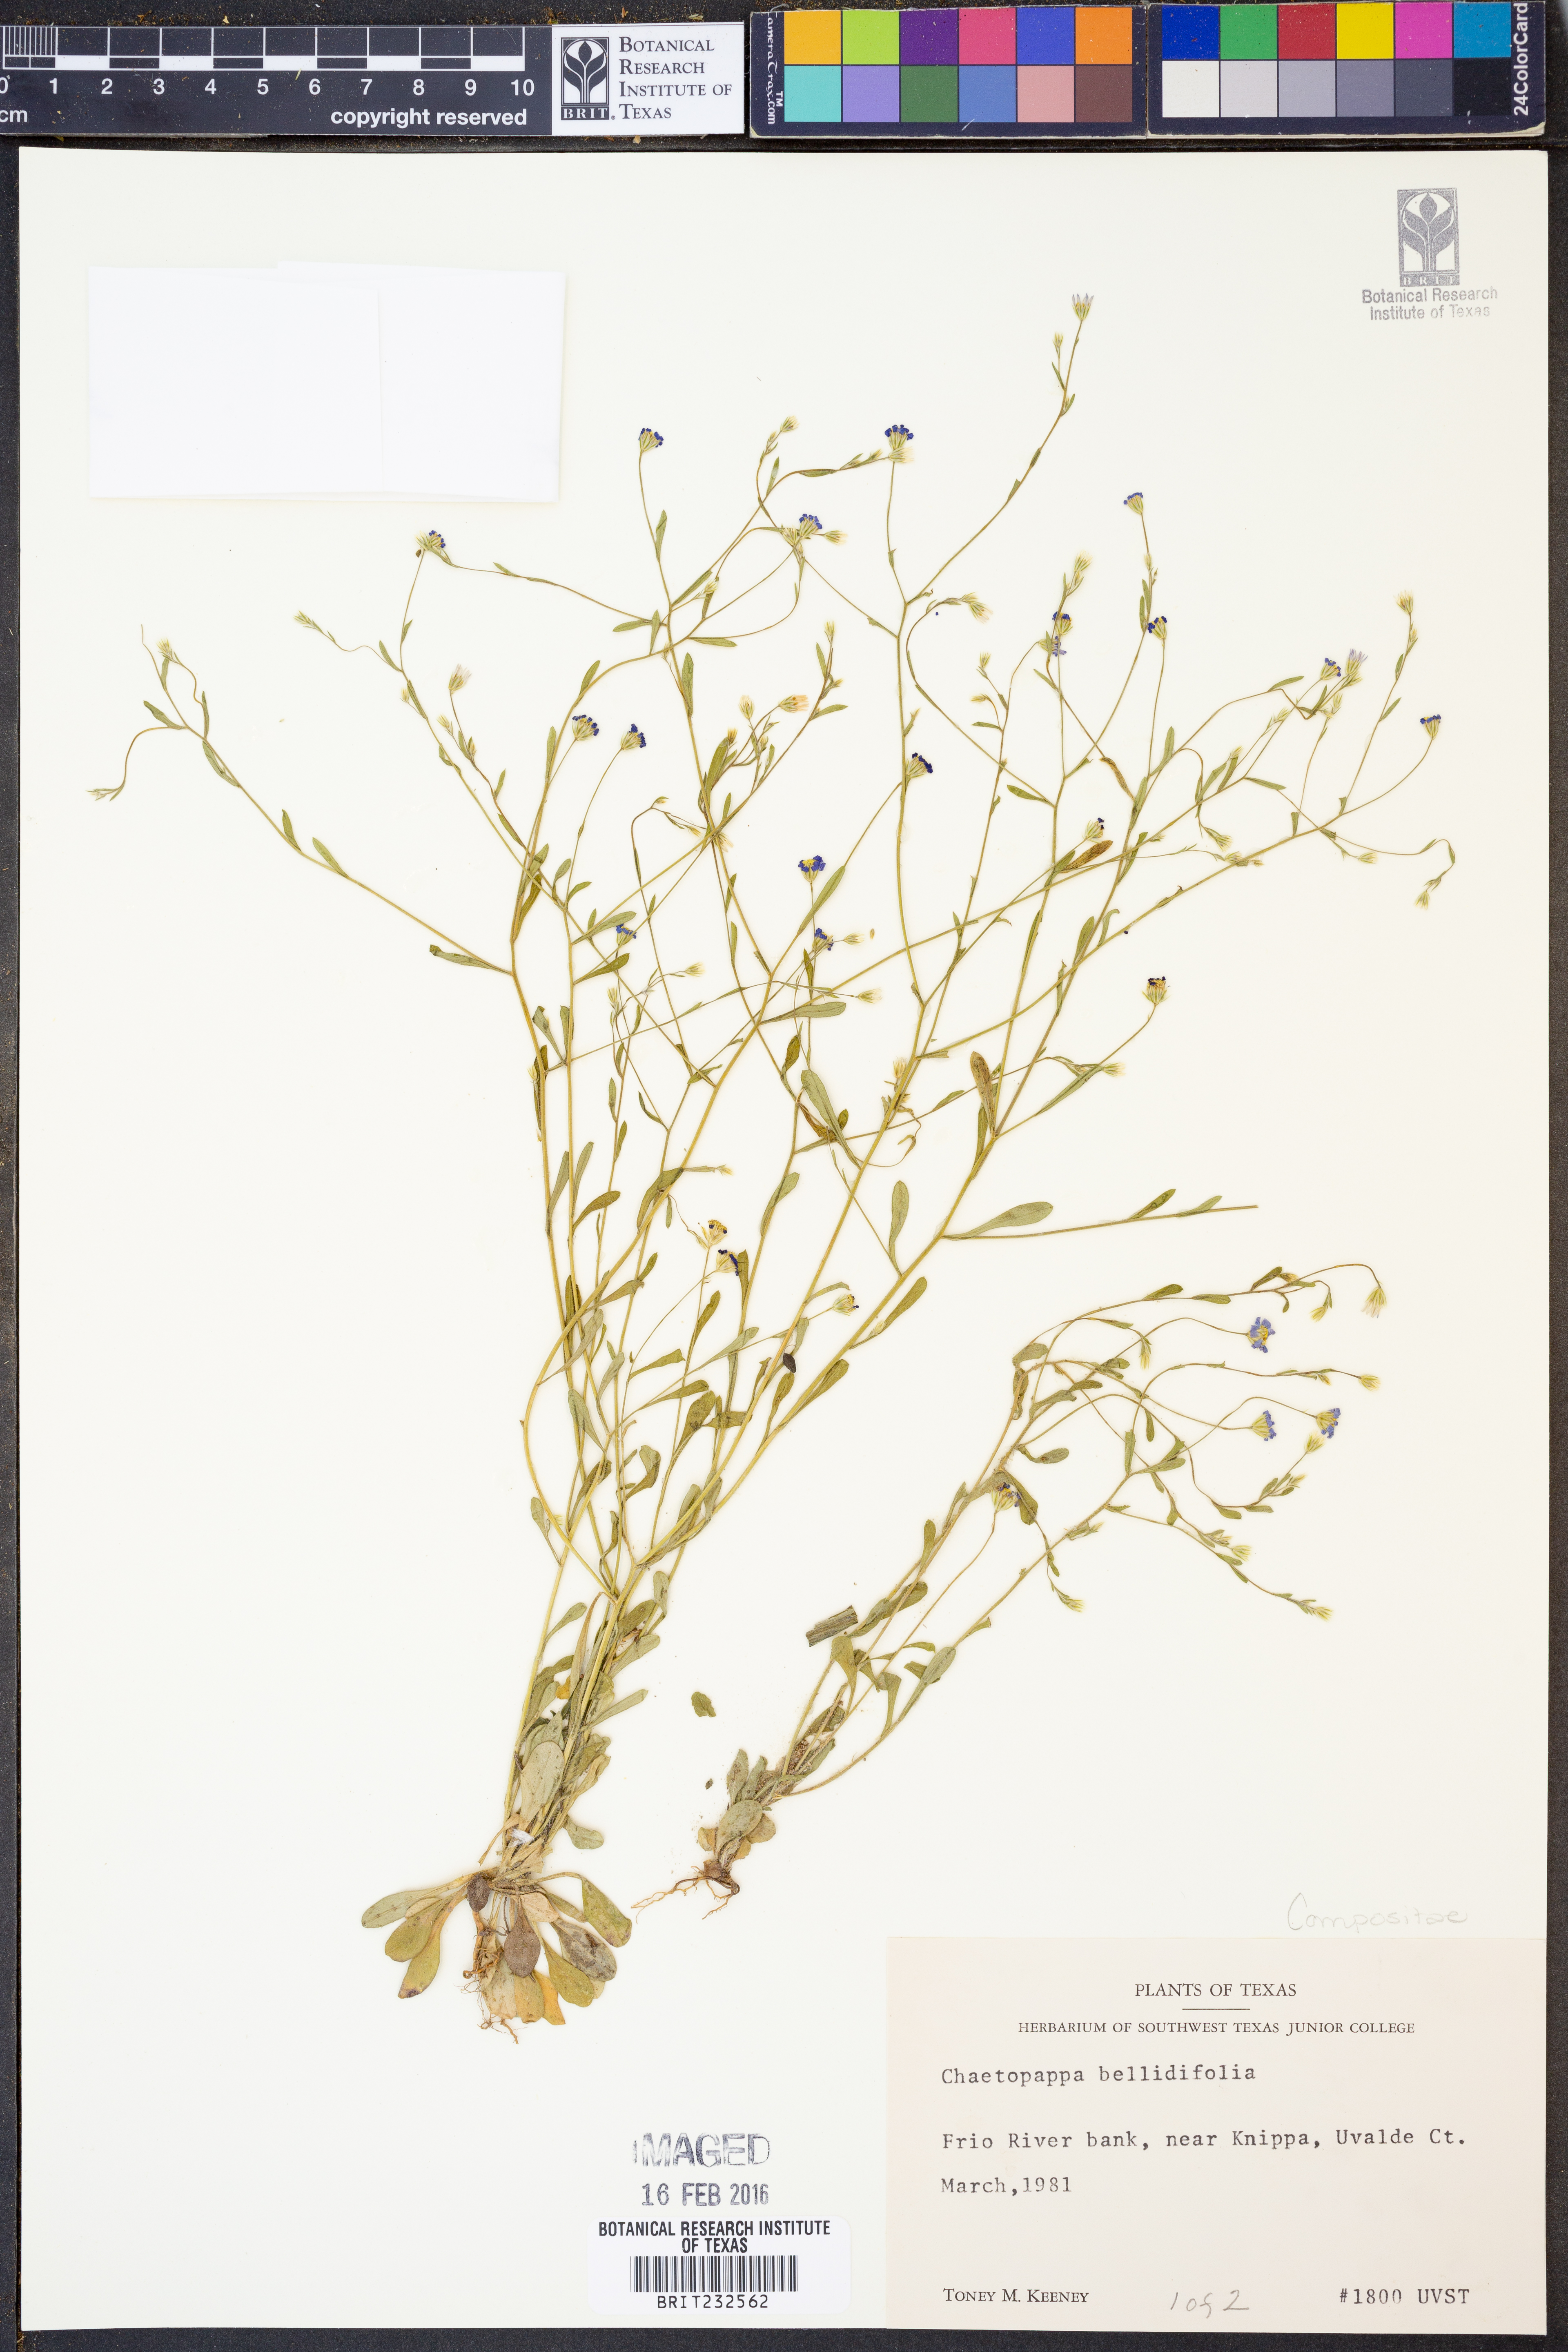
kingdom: Plantae
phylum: Tracheophyta
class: Magnoliopsida
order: Asterales
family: Asteraceae
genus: Chaetopappa
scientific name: Chaetopappa bellidifolia
